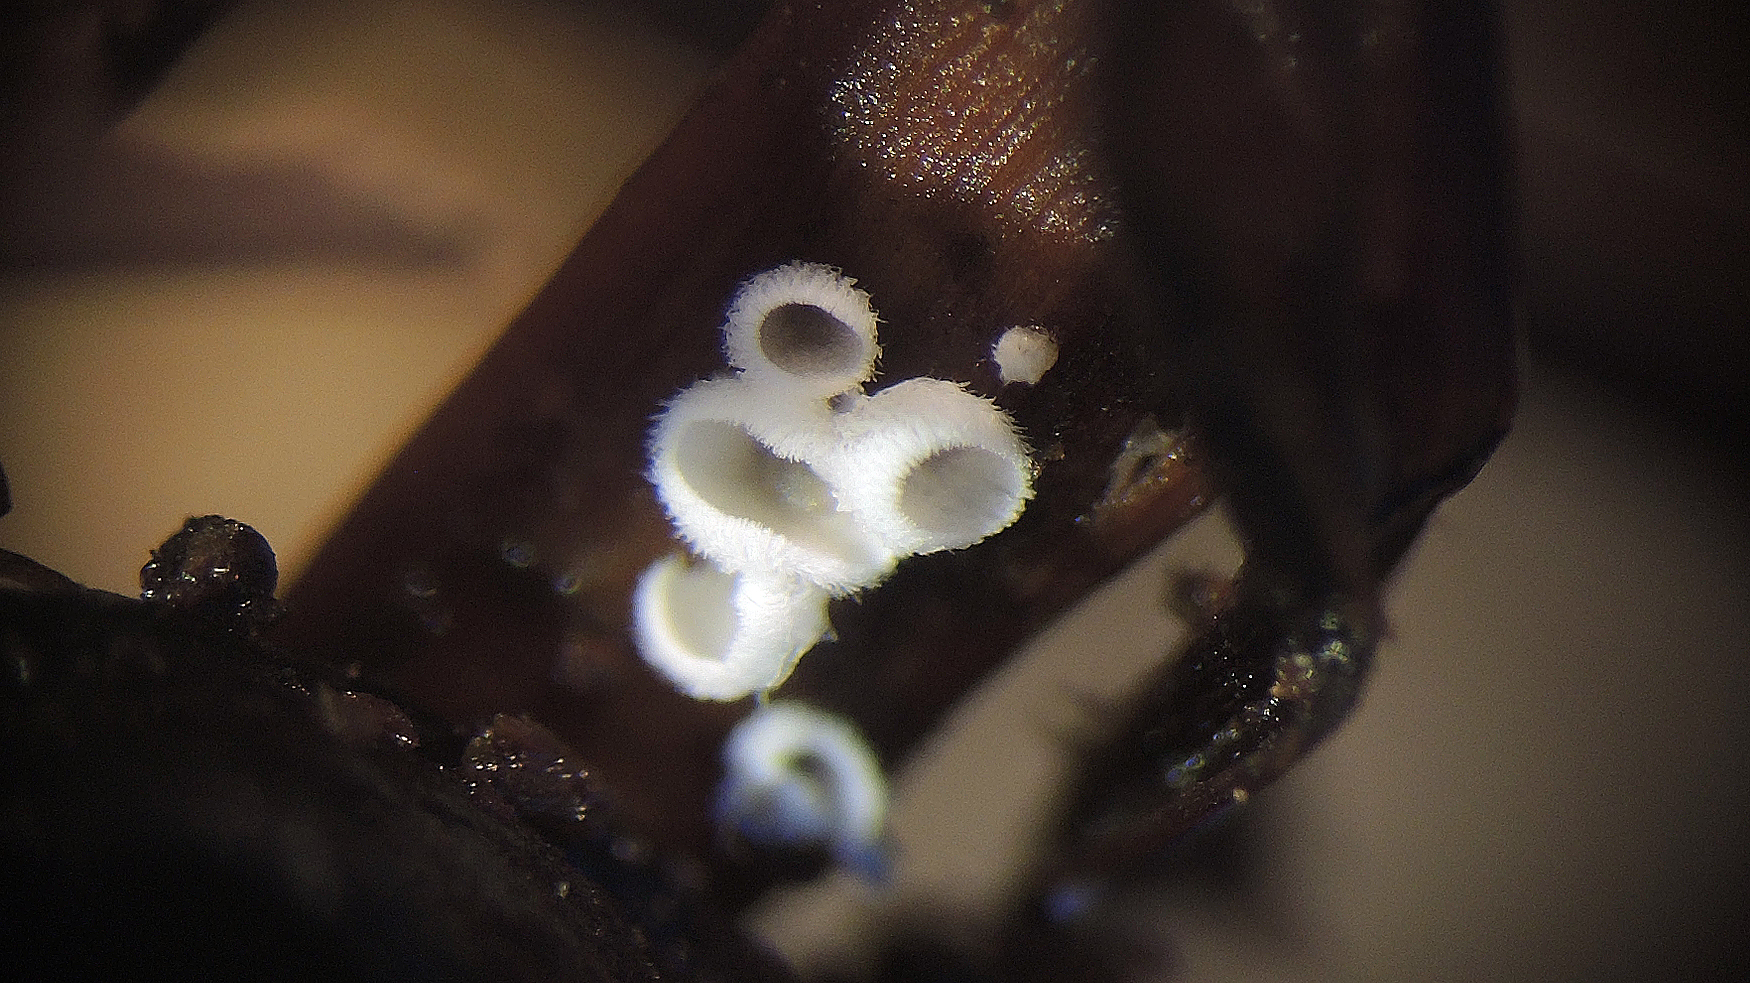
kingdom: Fungi
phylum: Basidiomycota
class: Agaricomycetes
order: Agaricales
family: Niaceae
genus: Flagelloscypha
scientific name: Flagelloscypha minutissima
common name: lille hængeskål
